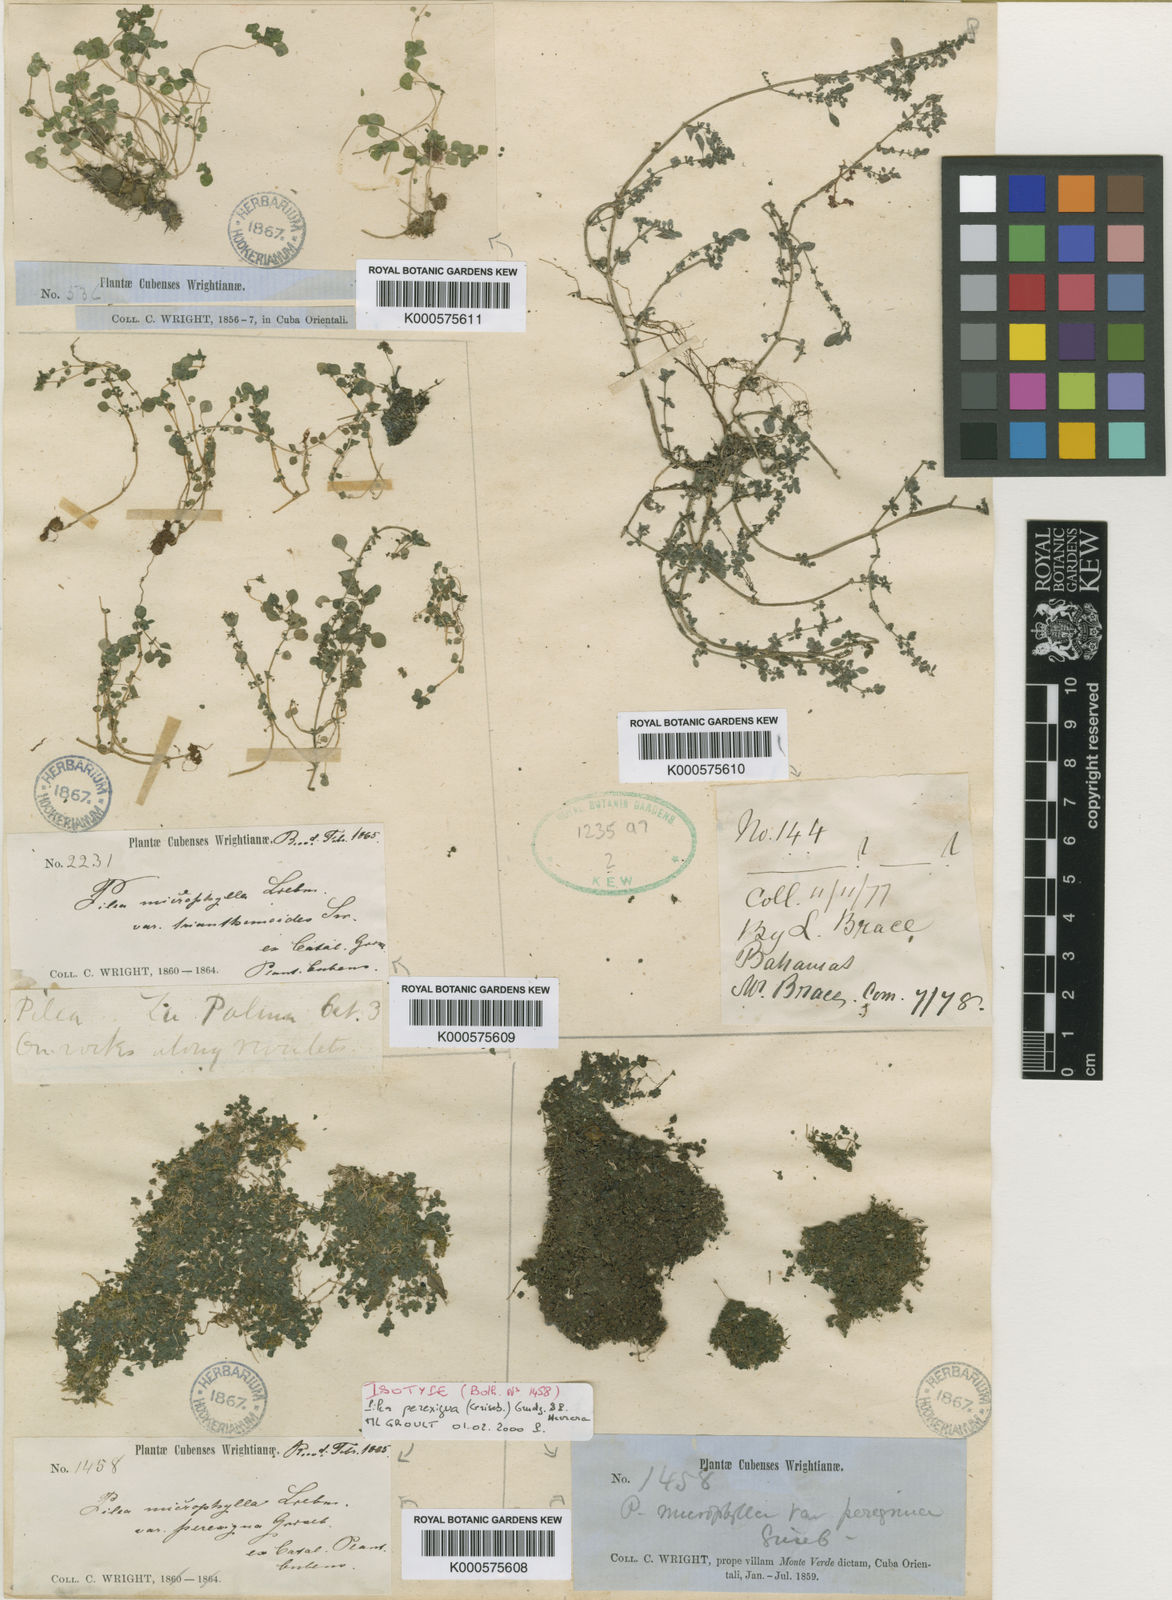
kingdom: Plantae
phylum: Tracheophyta
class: Magnoliopsida
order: Rosales
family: Urticaceae
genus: Pilea
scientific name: Pilea herniarioides
